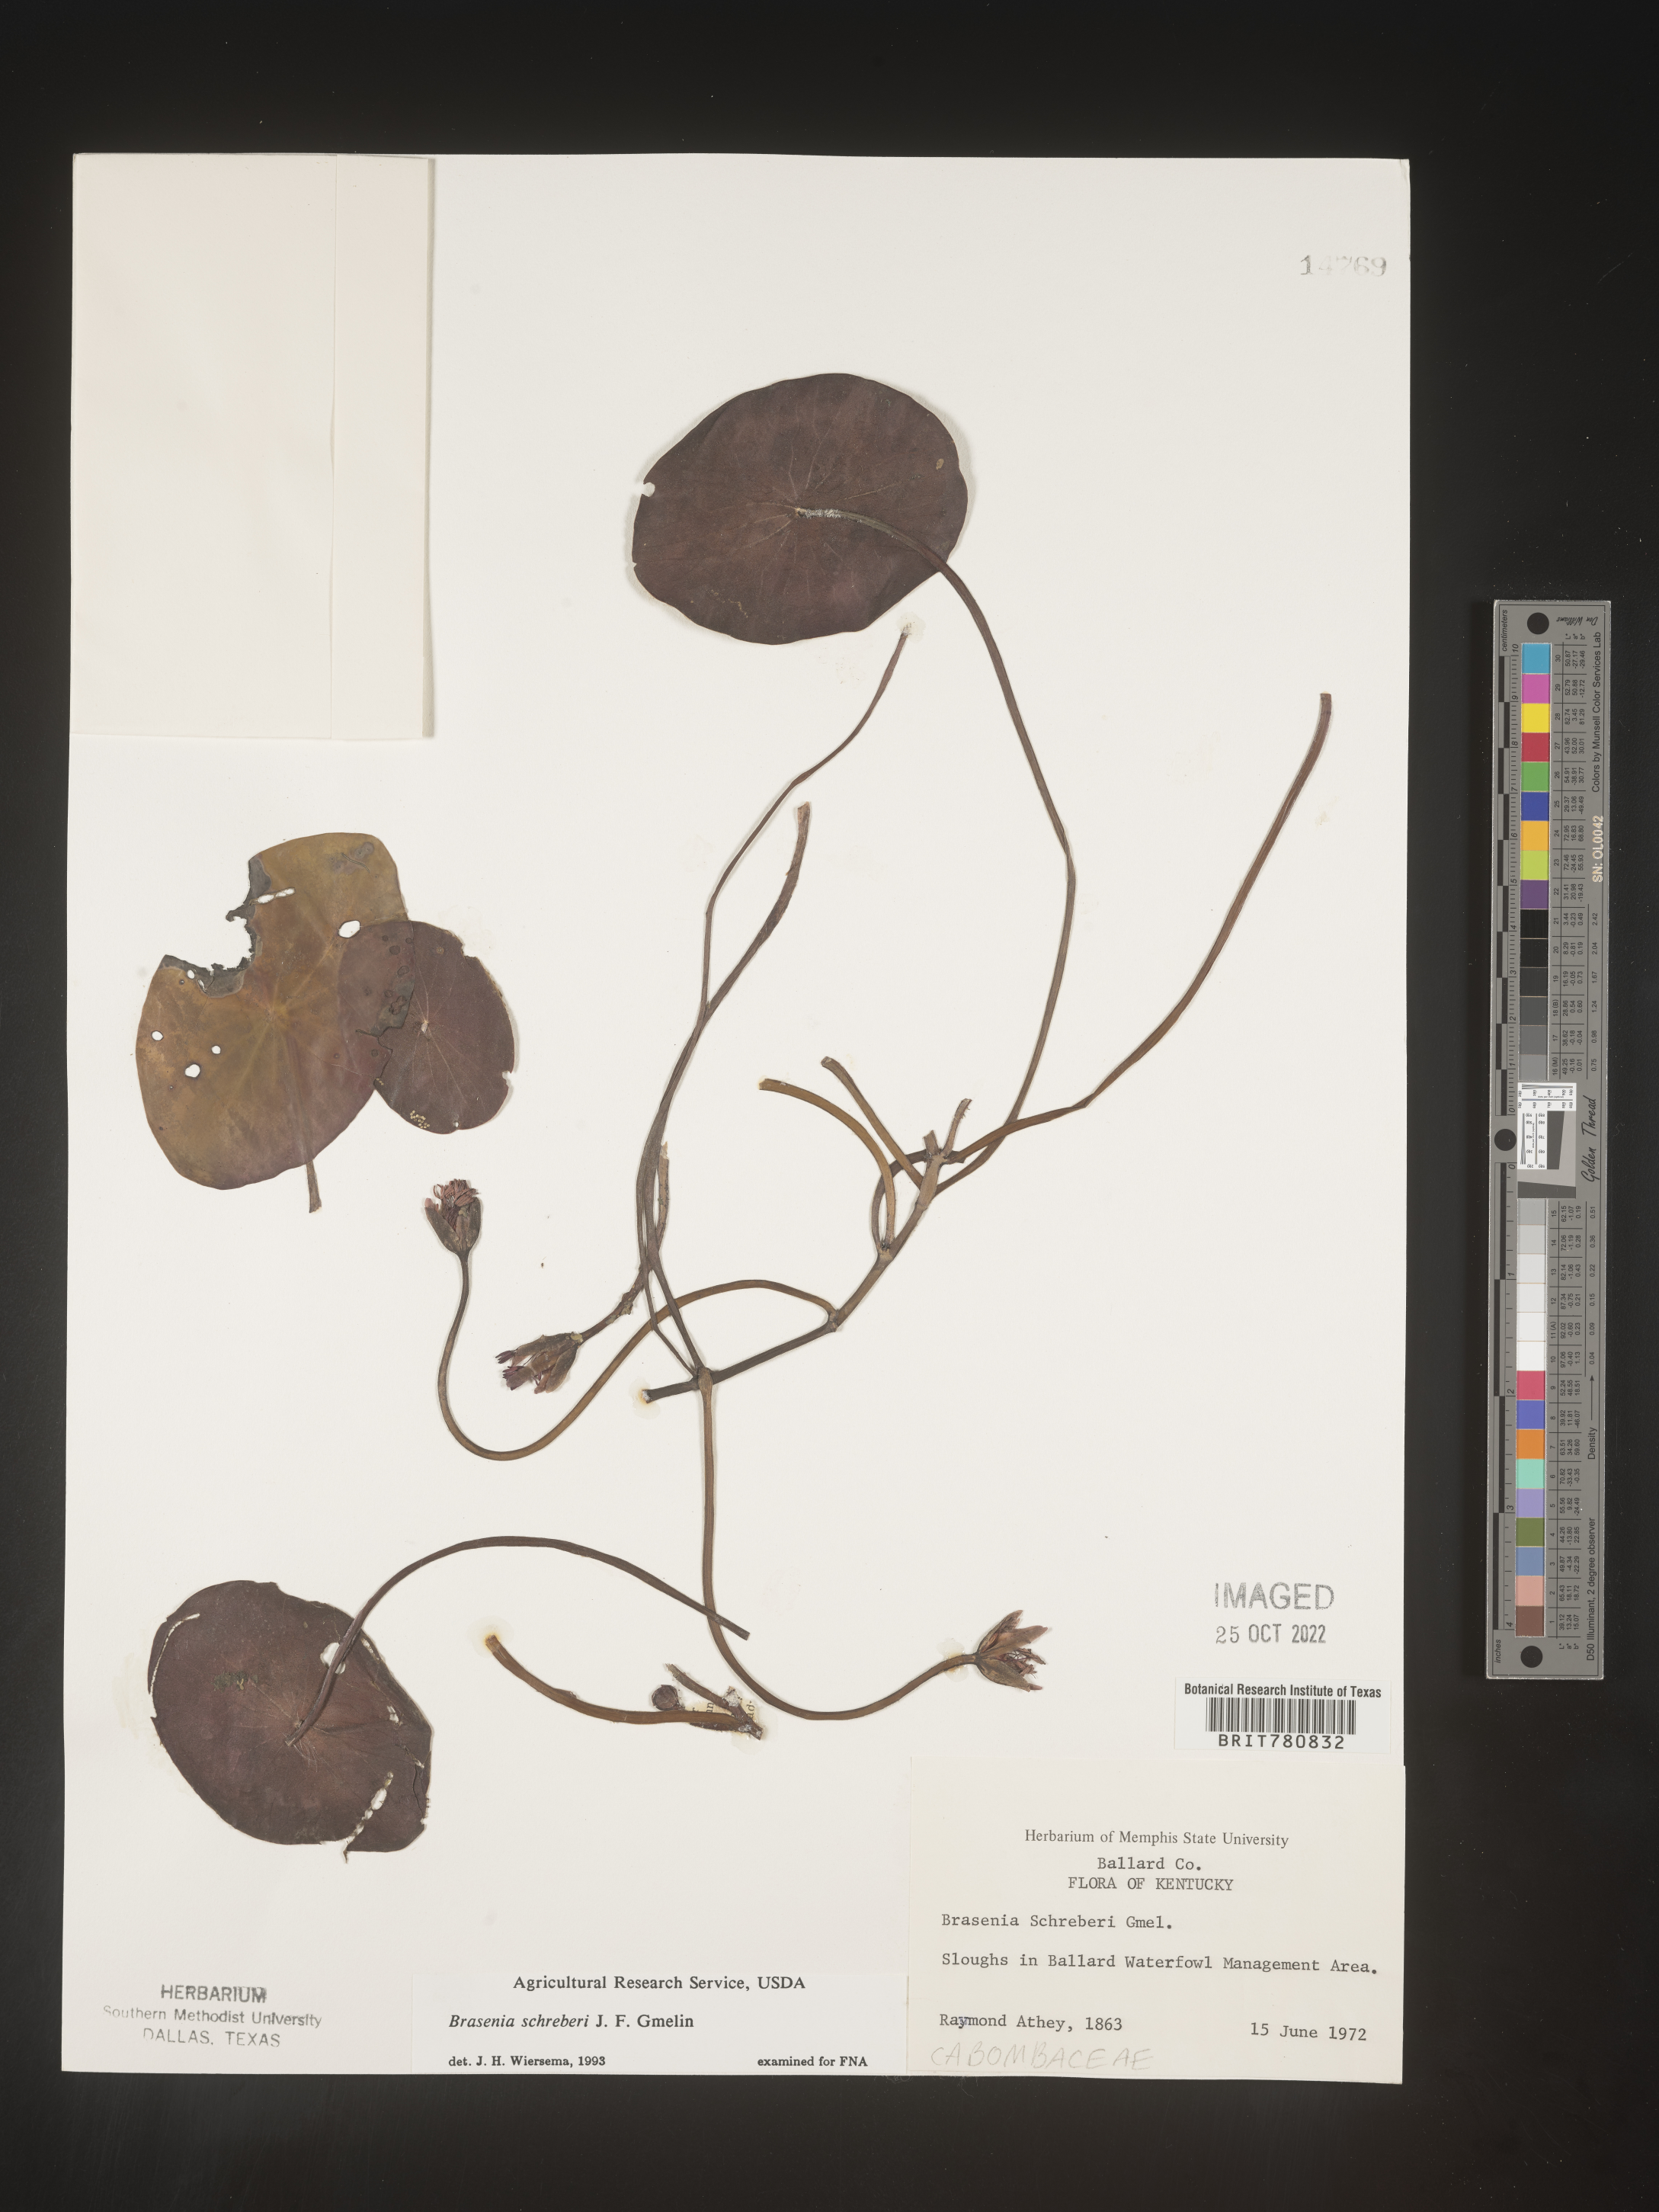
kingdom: Plantae
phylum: Tracheophyta
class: Magnoliopsida
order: Nymphaeales
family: Cabombaceae
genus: Brasenia
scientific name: Brasenia schreberi
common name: Water-shield
